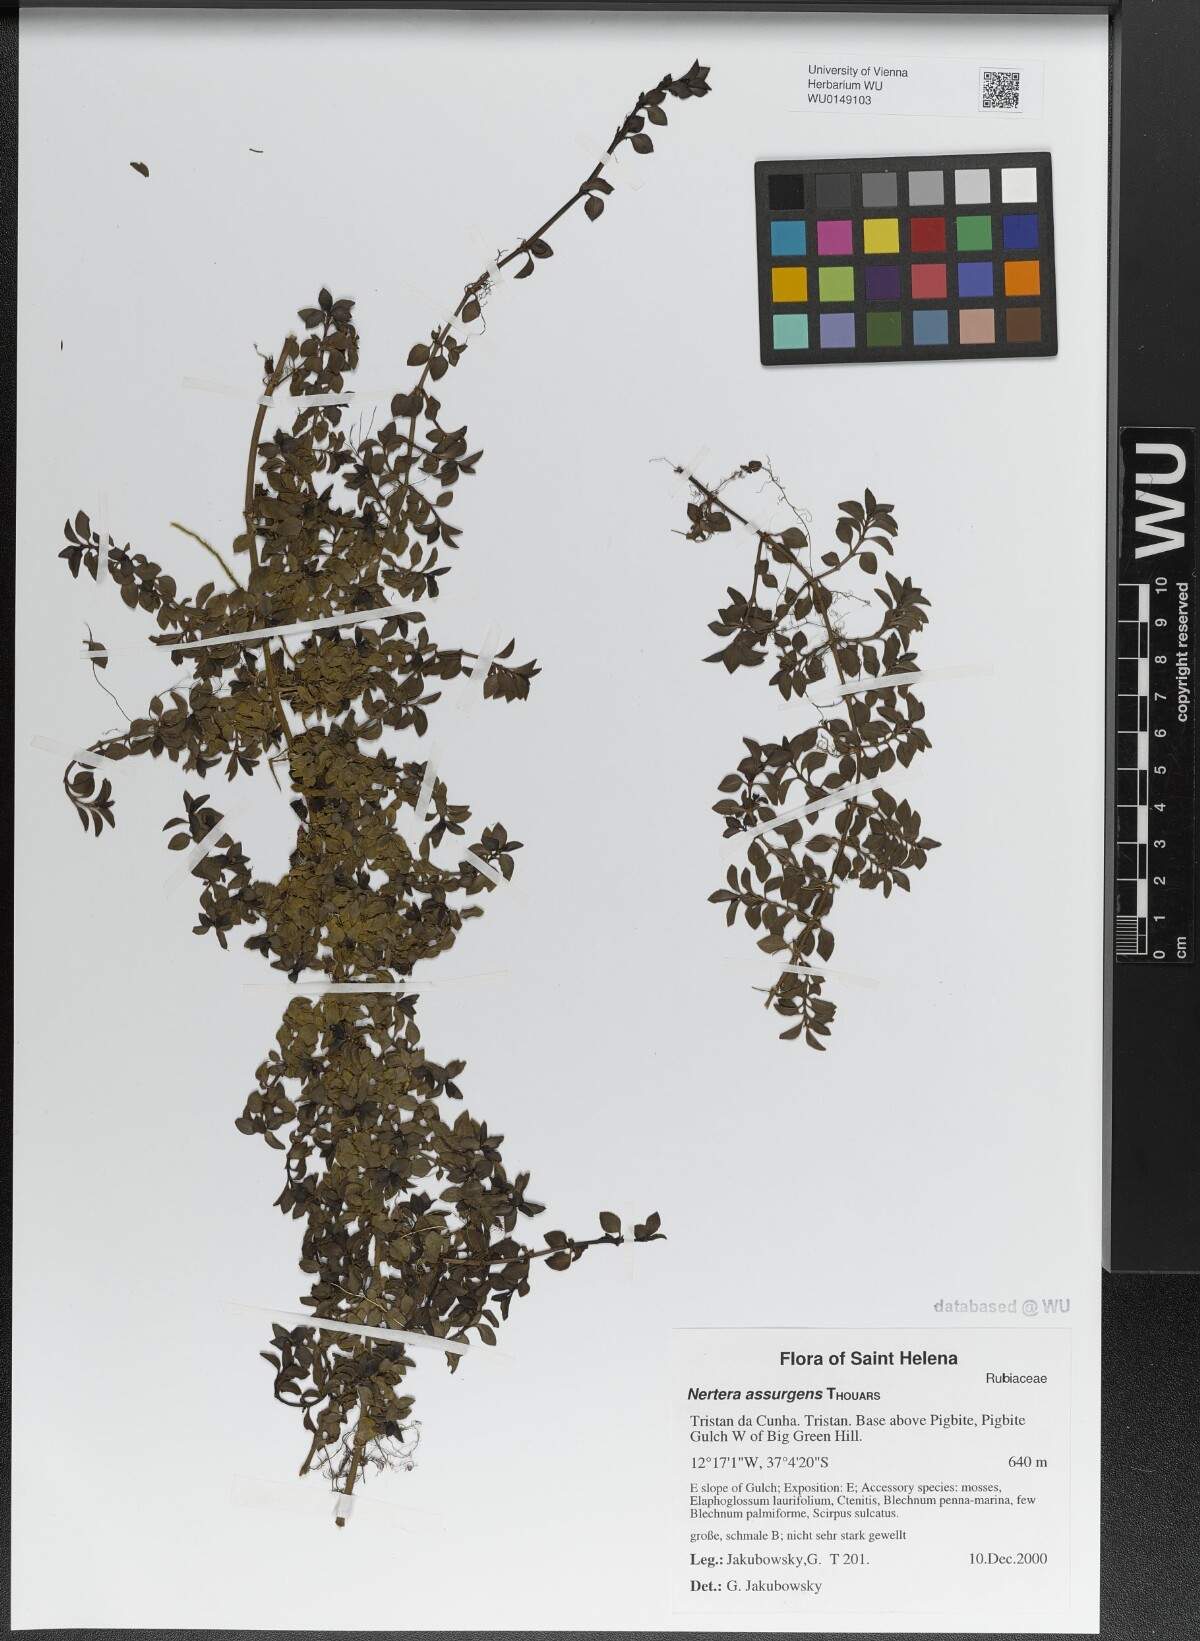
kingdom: Plantae
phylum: Tracheophyta
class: Magnoliopsida
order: Gentianales
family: Rubiaceae
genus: Nertera
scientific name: Nertera granadensis
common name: Beadplant
